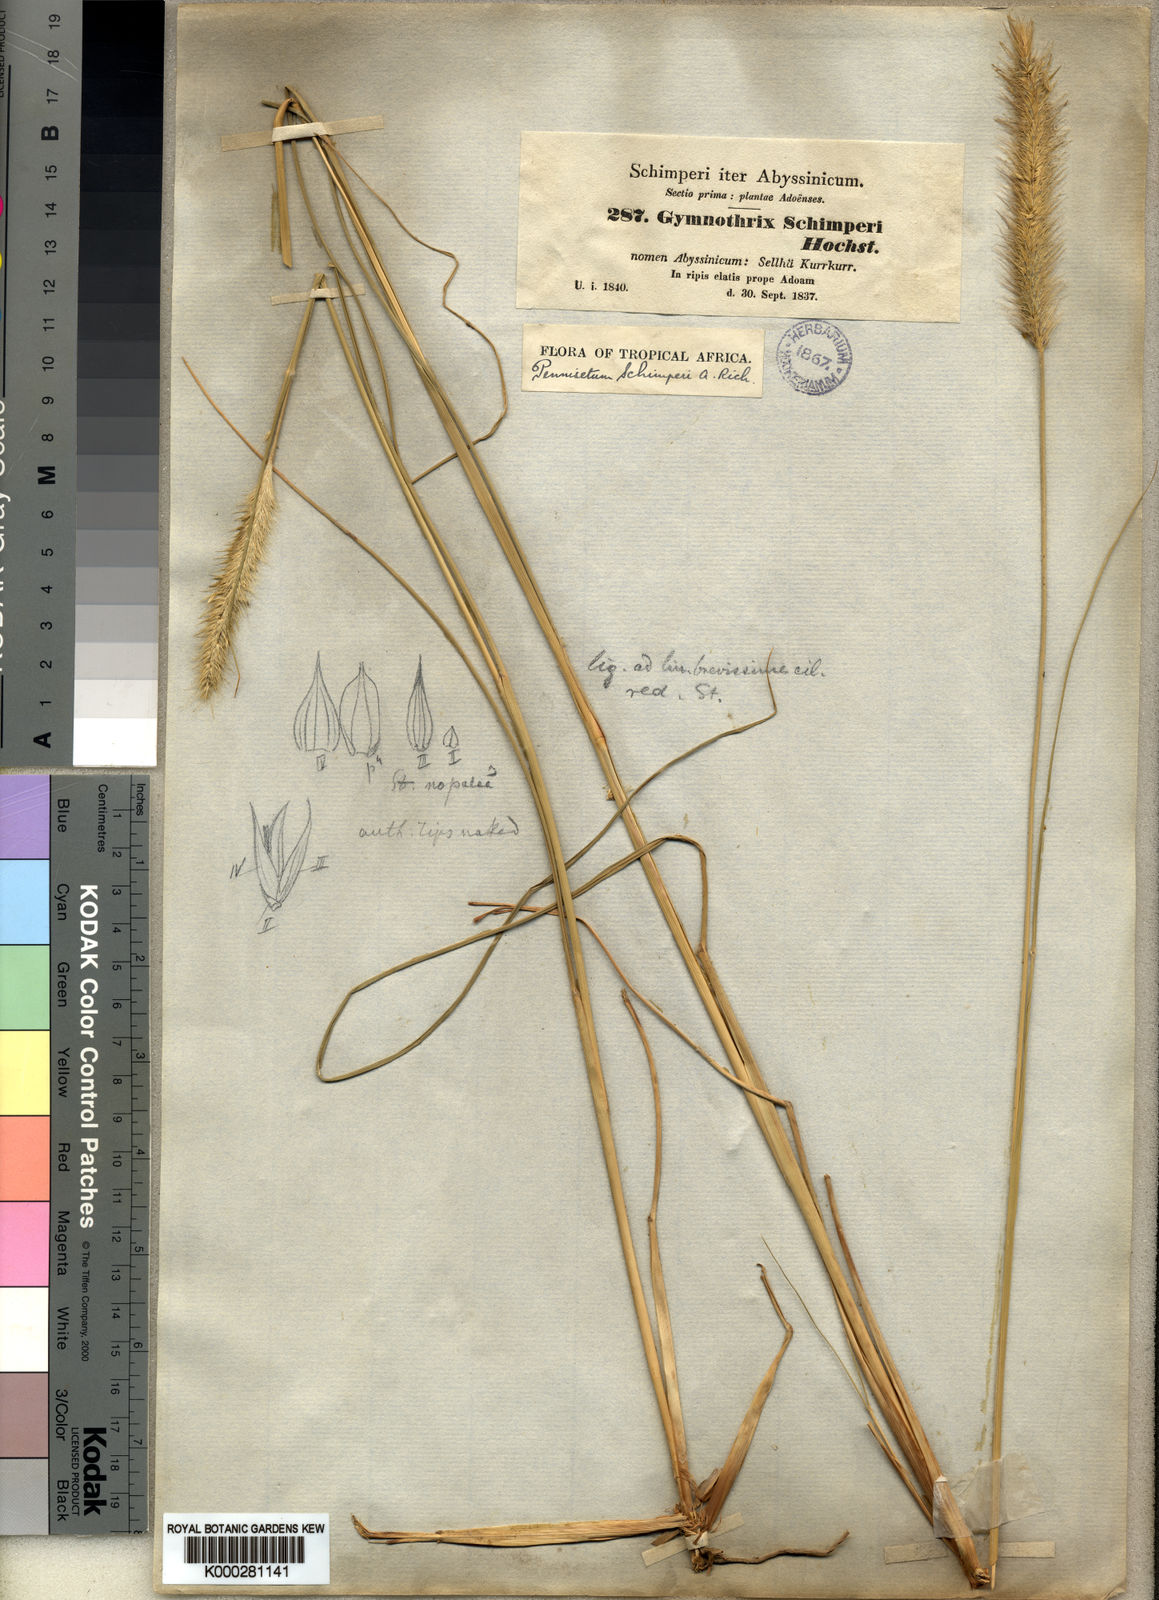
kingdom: Plantae
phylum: Tracheophyta
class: Liliopsida
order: Poales
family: Poaceae
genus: Cenchrus
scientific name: Cenchrus Pennisetum spec
